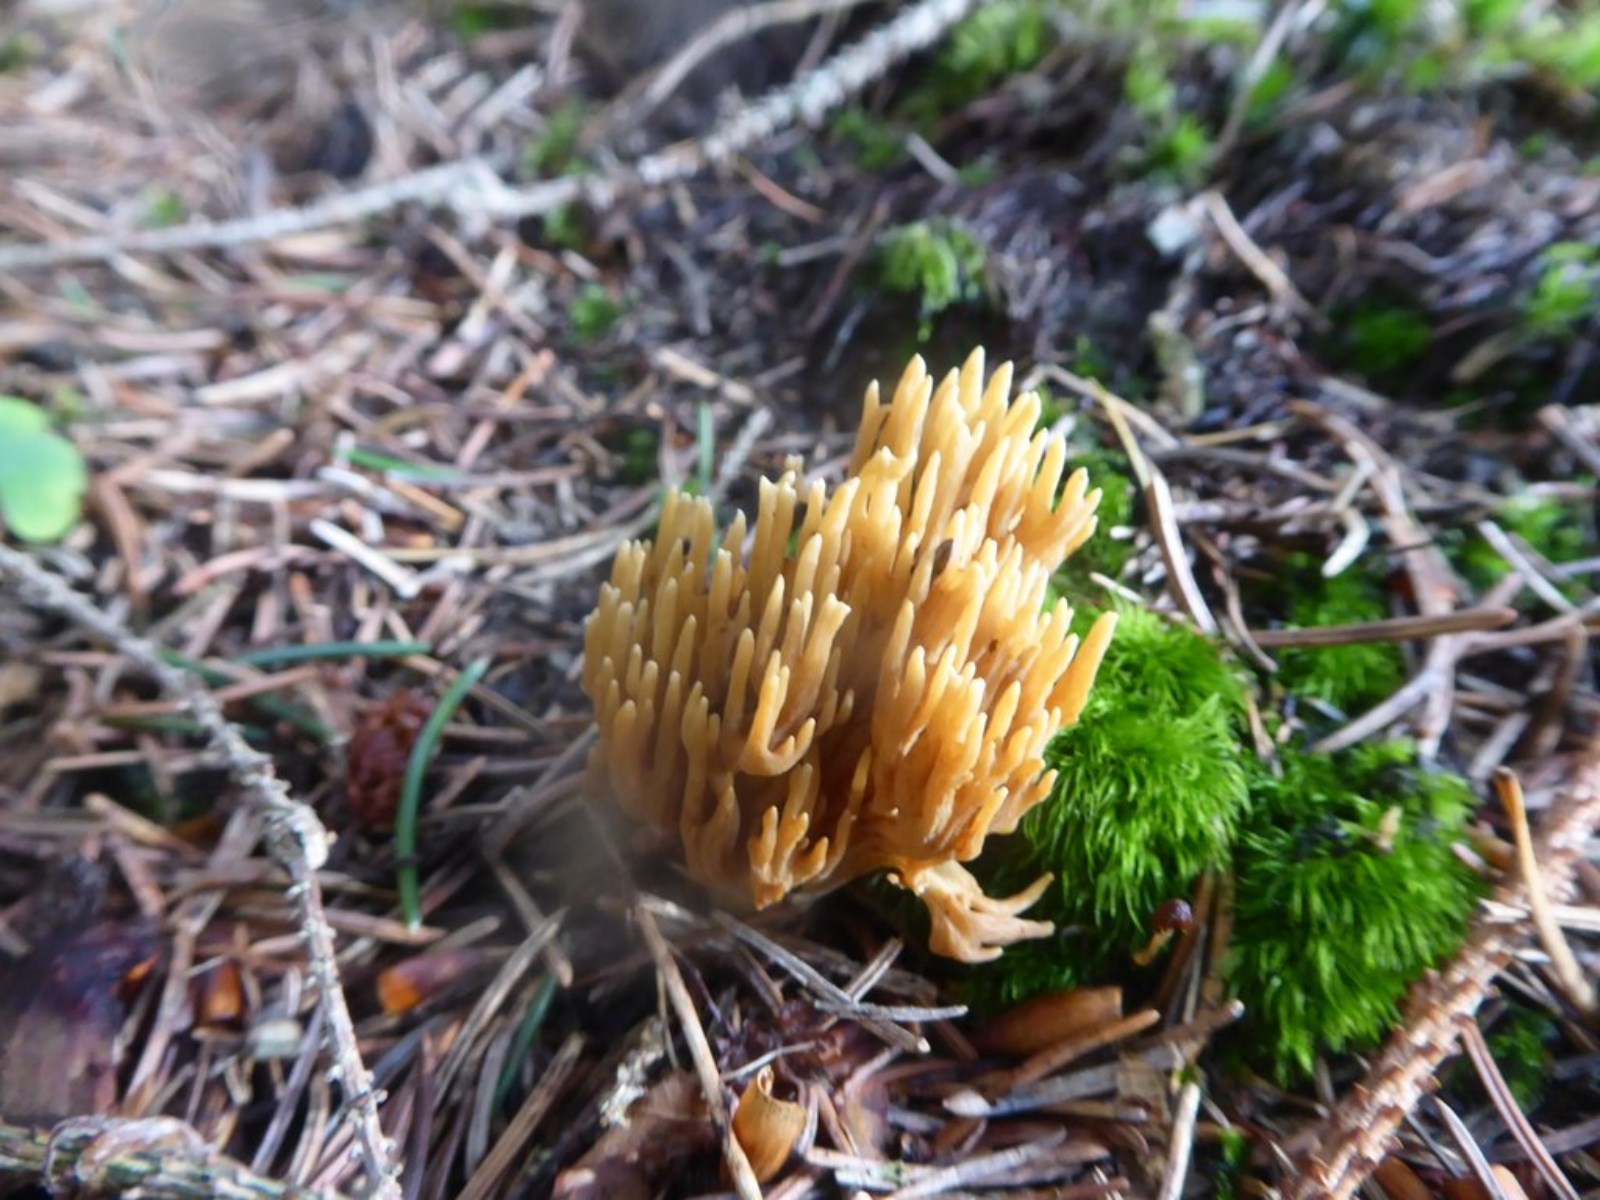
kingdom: Fungi
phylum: Basidiomycota
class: Agaricomycetes
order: Gomphales
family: Gomphaceae
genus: Phaeoclavulina
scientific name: Phaeoclavulina eumorpha
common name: gran-koralsvamp
